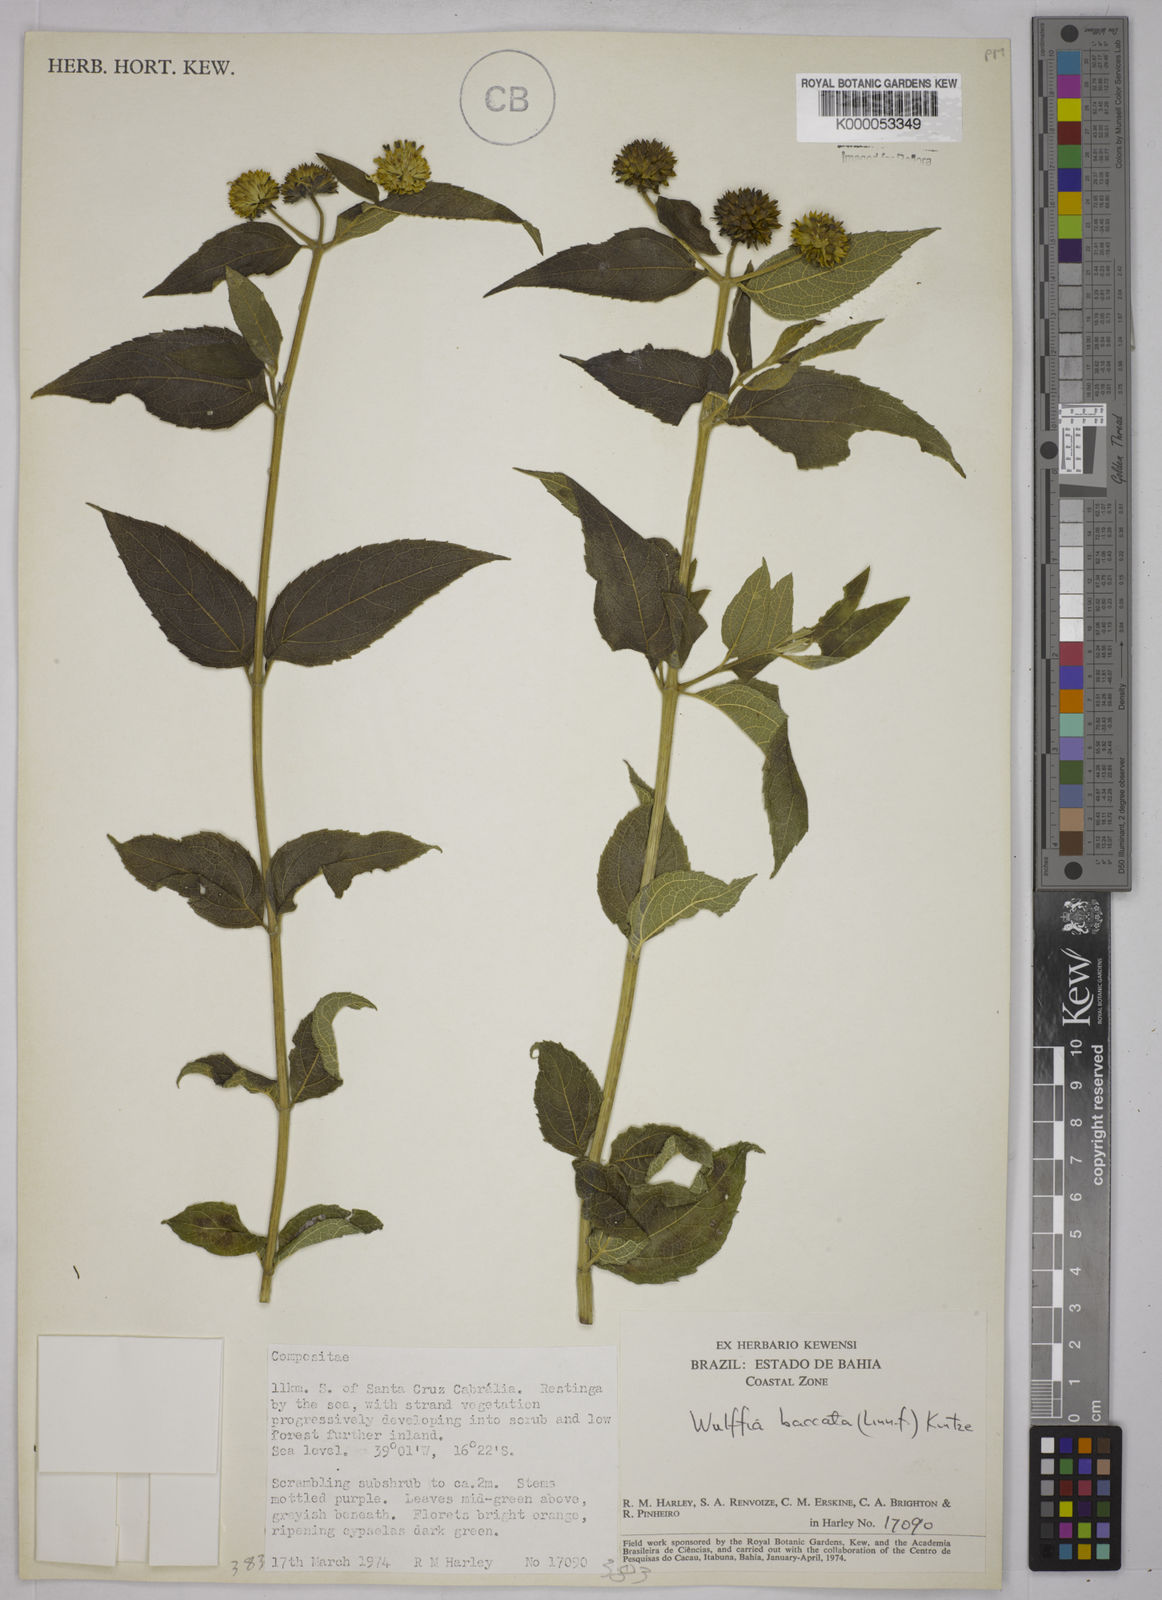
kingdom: Plantae
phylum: Tracheophyta
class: Magnoliopsida
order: Asterales
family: Asteraceae
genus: Tilesia
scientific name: Tilesia baccata
